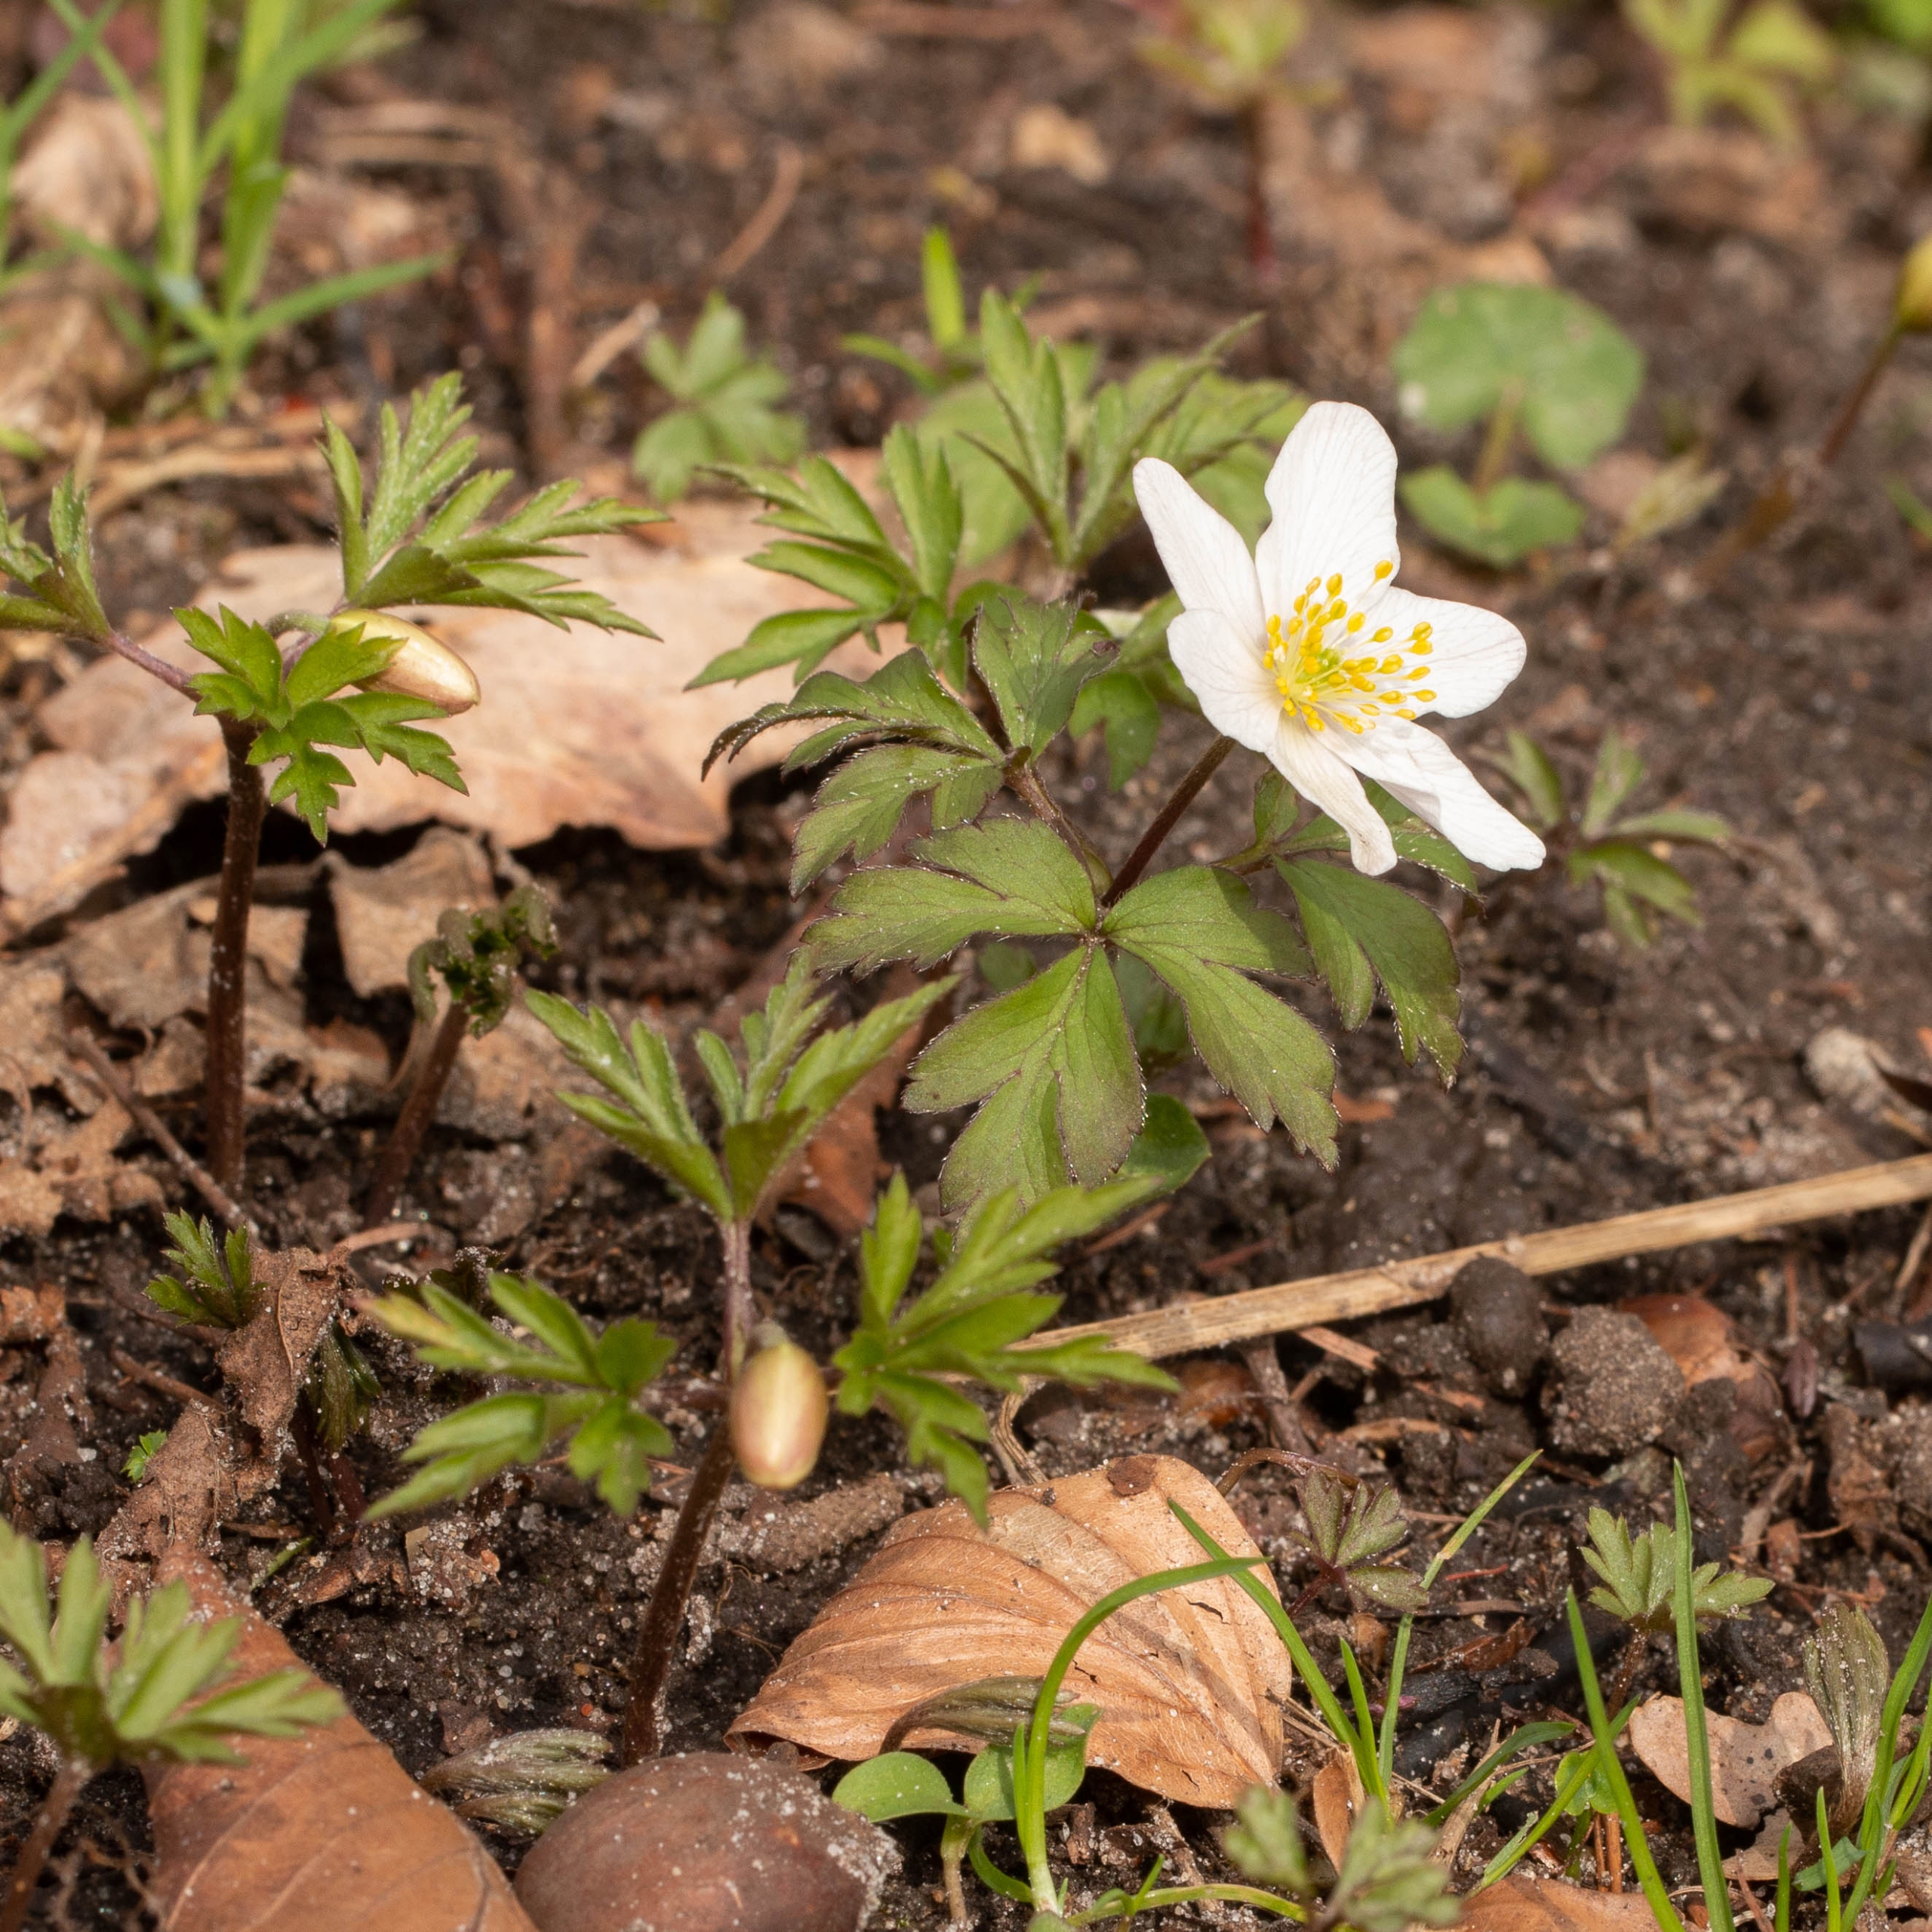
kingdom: Plantae
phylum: Tracheophyta
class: Magnoliopsida
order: Ranunculales
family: Ranunculaceae
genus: Anemone
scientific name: Anemone nemorosa
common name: Hvid anemone
